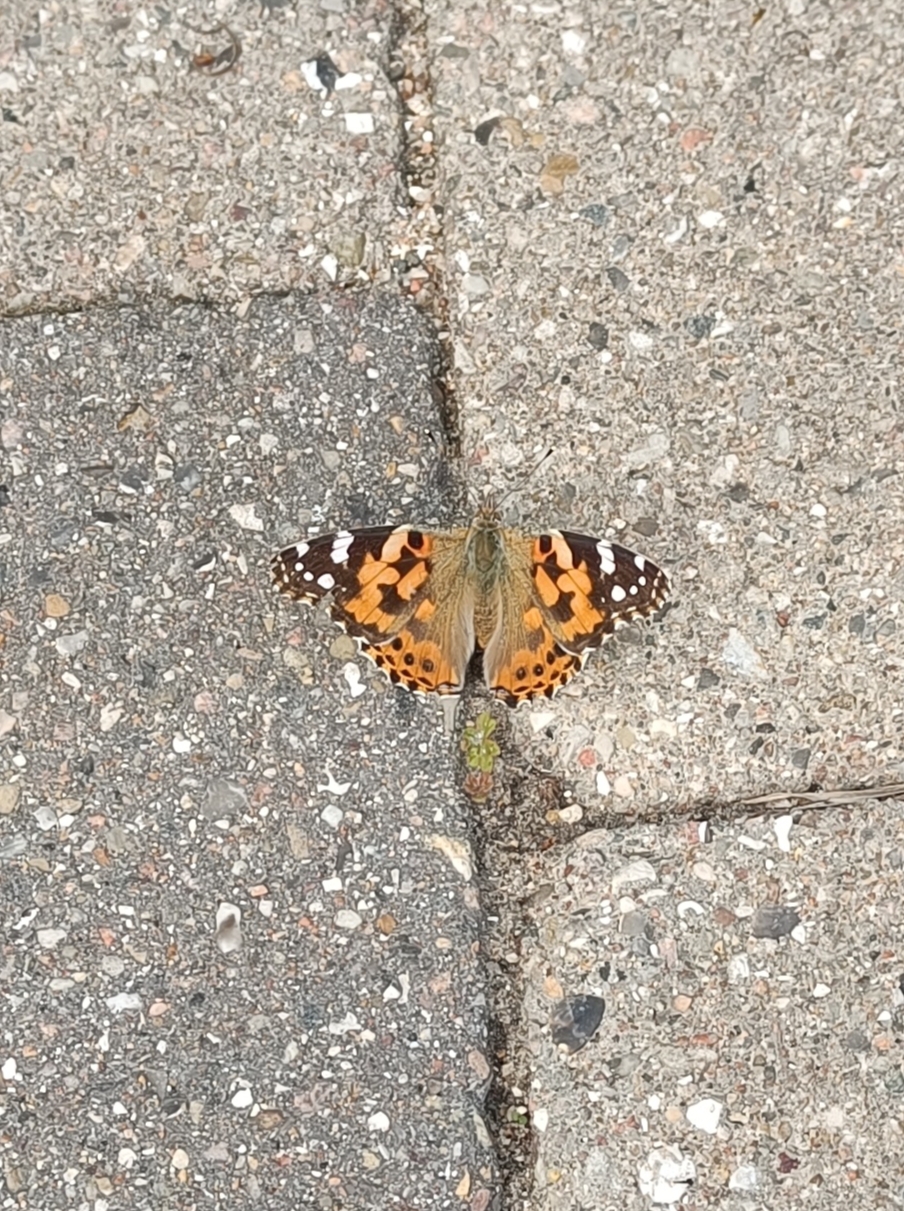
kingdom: Animalia
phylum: Arthropoda
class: Insecta
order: Lepidoptera
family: Nymphalidae
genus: Vanessa
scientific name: Vanessa cardui
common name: Tidselsommerfugl
